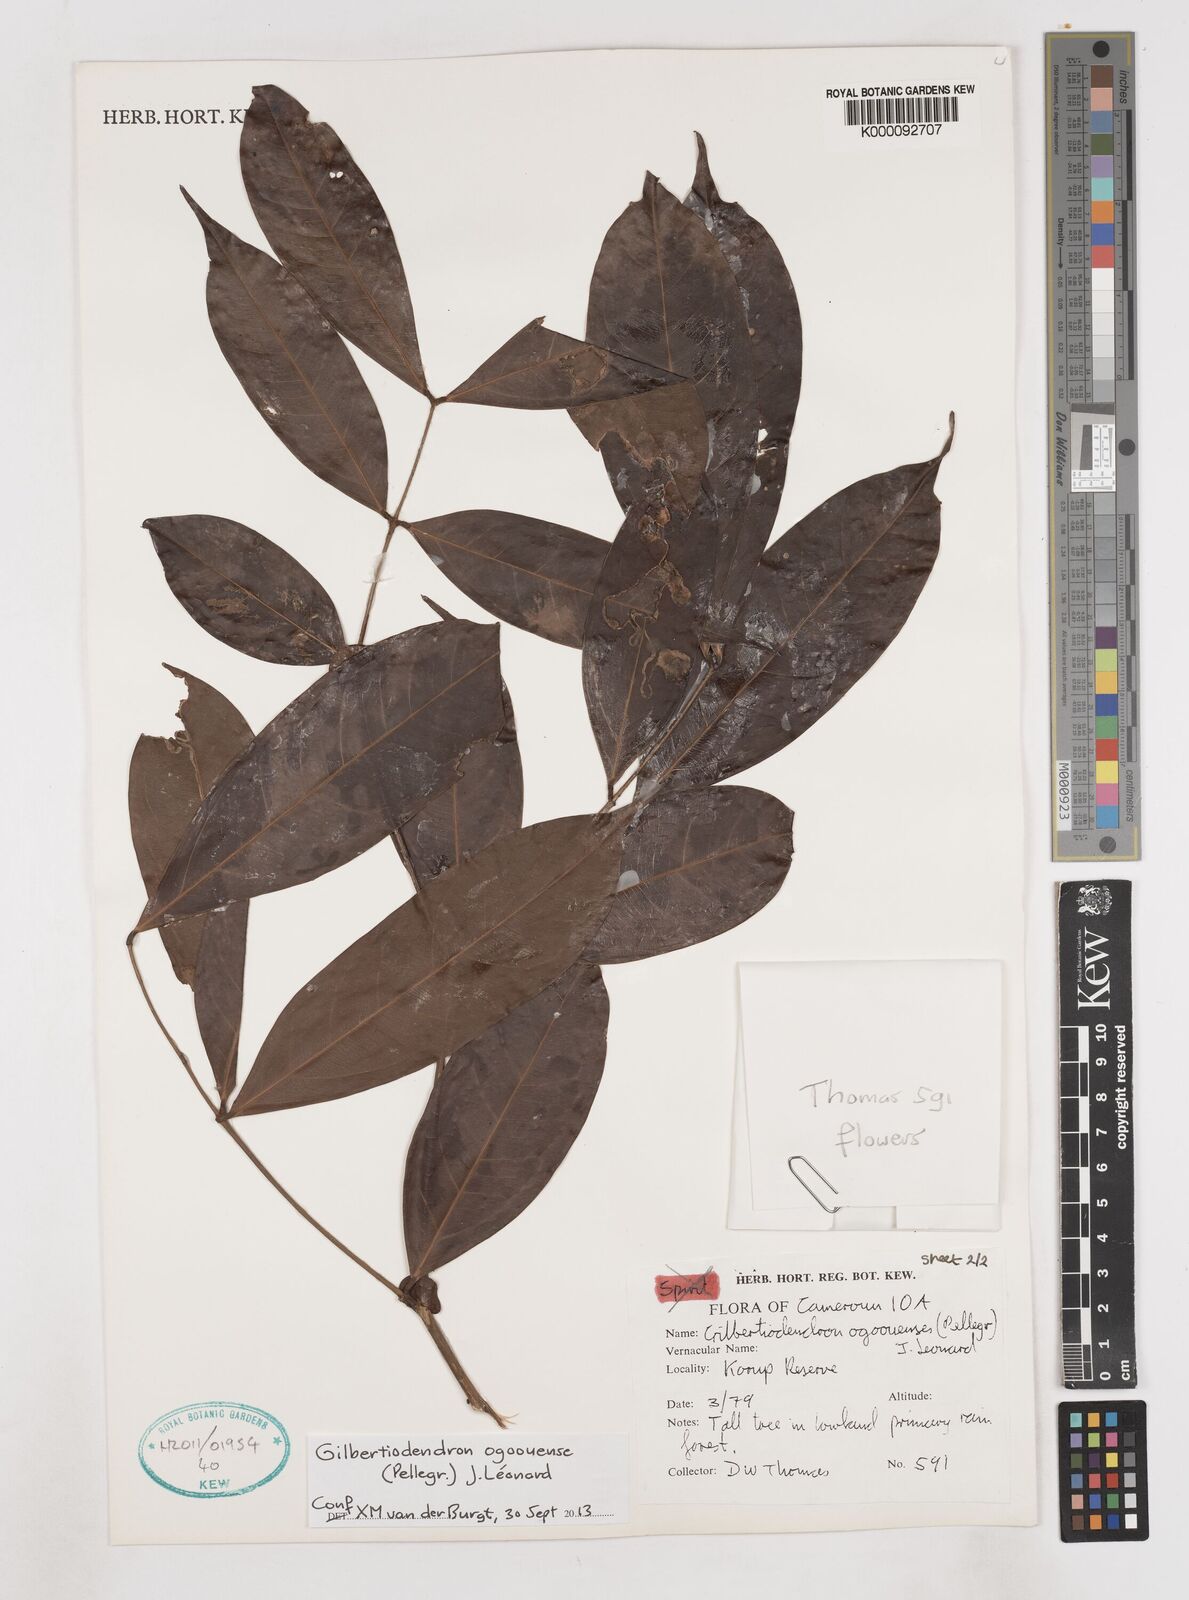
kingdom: Plantae
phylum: Tracheophyta
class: Magnoliopsida
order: Fabales
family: Fabaceae
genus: Gilbertiodendron
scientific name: Gilbertiodendron
